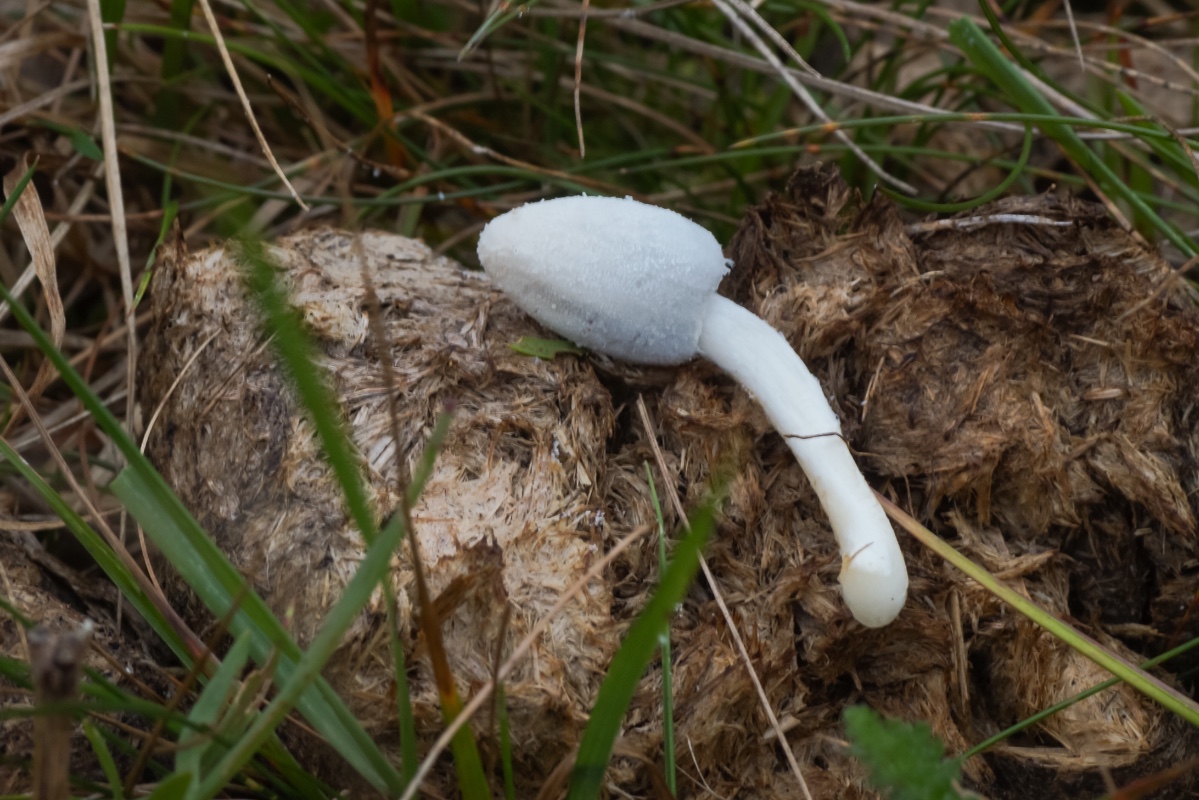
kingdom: Fungi
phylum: Basidiomycota
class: Agaricomycetes
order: Agaricales
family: Psathyrellaceae
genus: Coprinopsis
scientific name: Coprinopsis nivea
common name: snehvid blækhat
